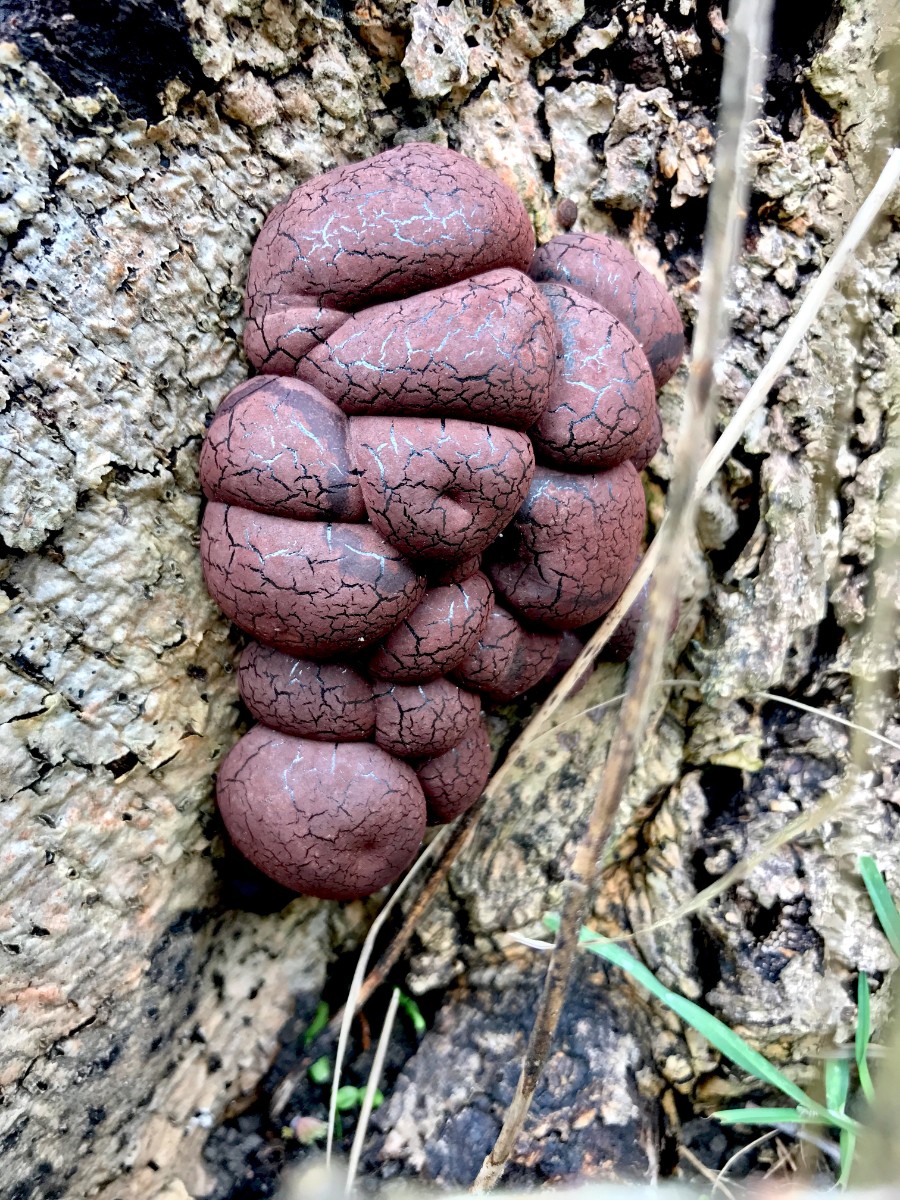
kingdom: Fungi
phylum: Ascomycota
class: Sordariomycetes
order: Xylariales
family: Hypoxylaceae
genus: Daldinia
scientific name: Daldinia concentrica
